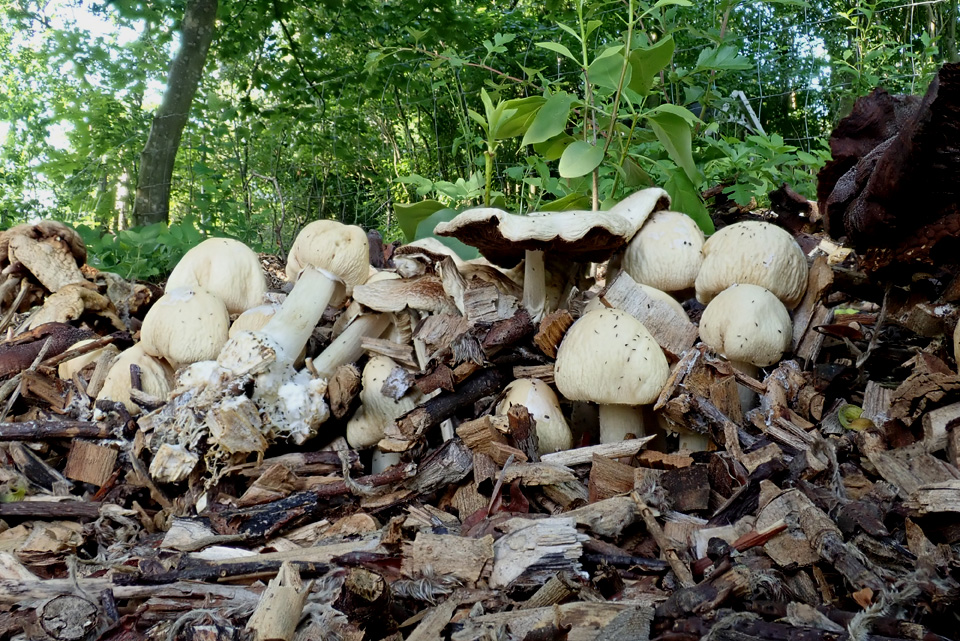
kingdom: Fungi
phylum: Basidiomycota
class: Agaricomycetes
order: Agaricales
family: Strophariaceae
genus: Agrocybe
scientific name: Agrocybe rivulosa
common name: året agerhat
